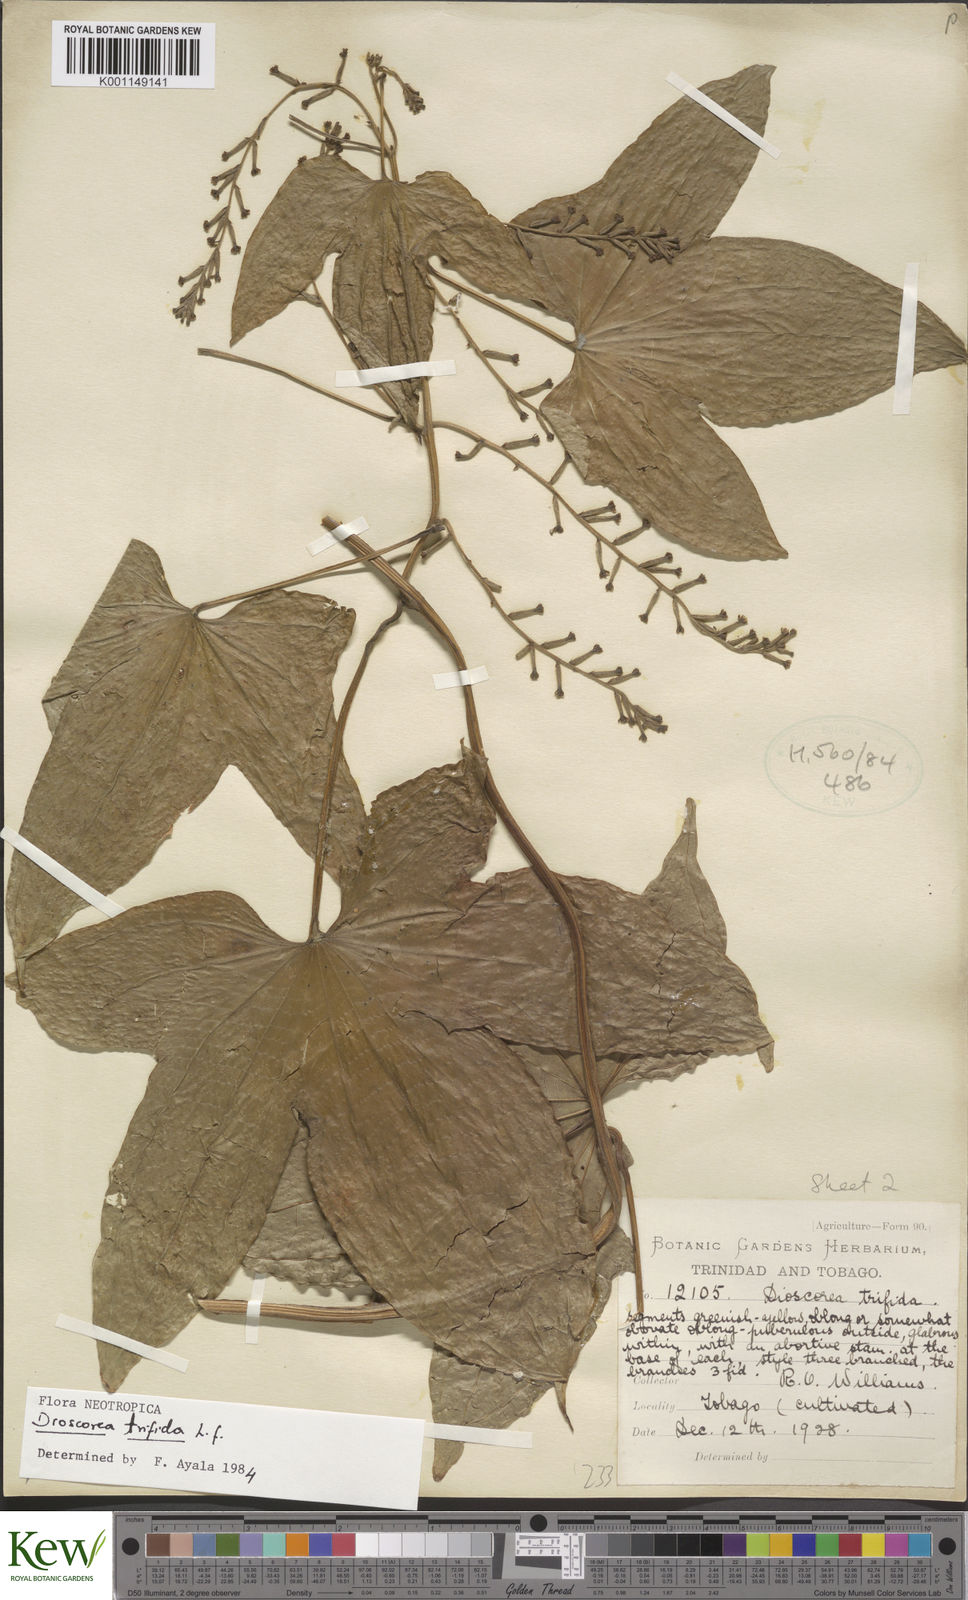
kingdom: Plantae
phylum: Tracheophyta
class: Liliopsida
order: Dioscoreales
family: Dioscoreaceae
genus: Dioscorea
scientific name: Dioscorea trifida
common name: Cush-cush
